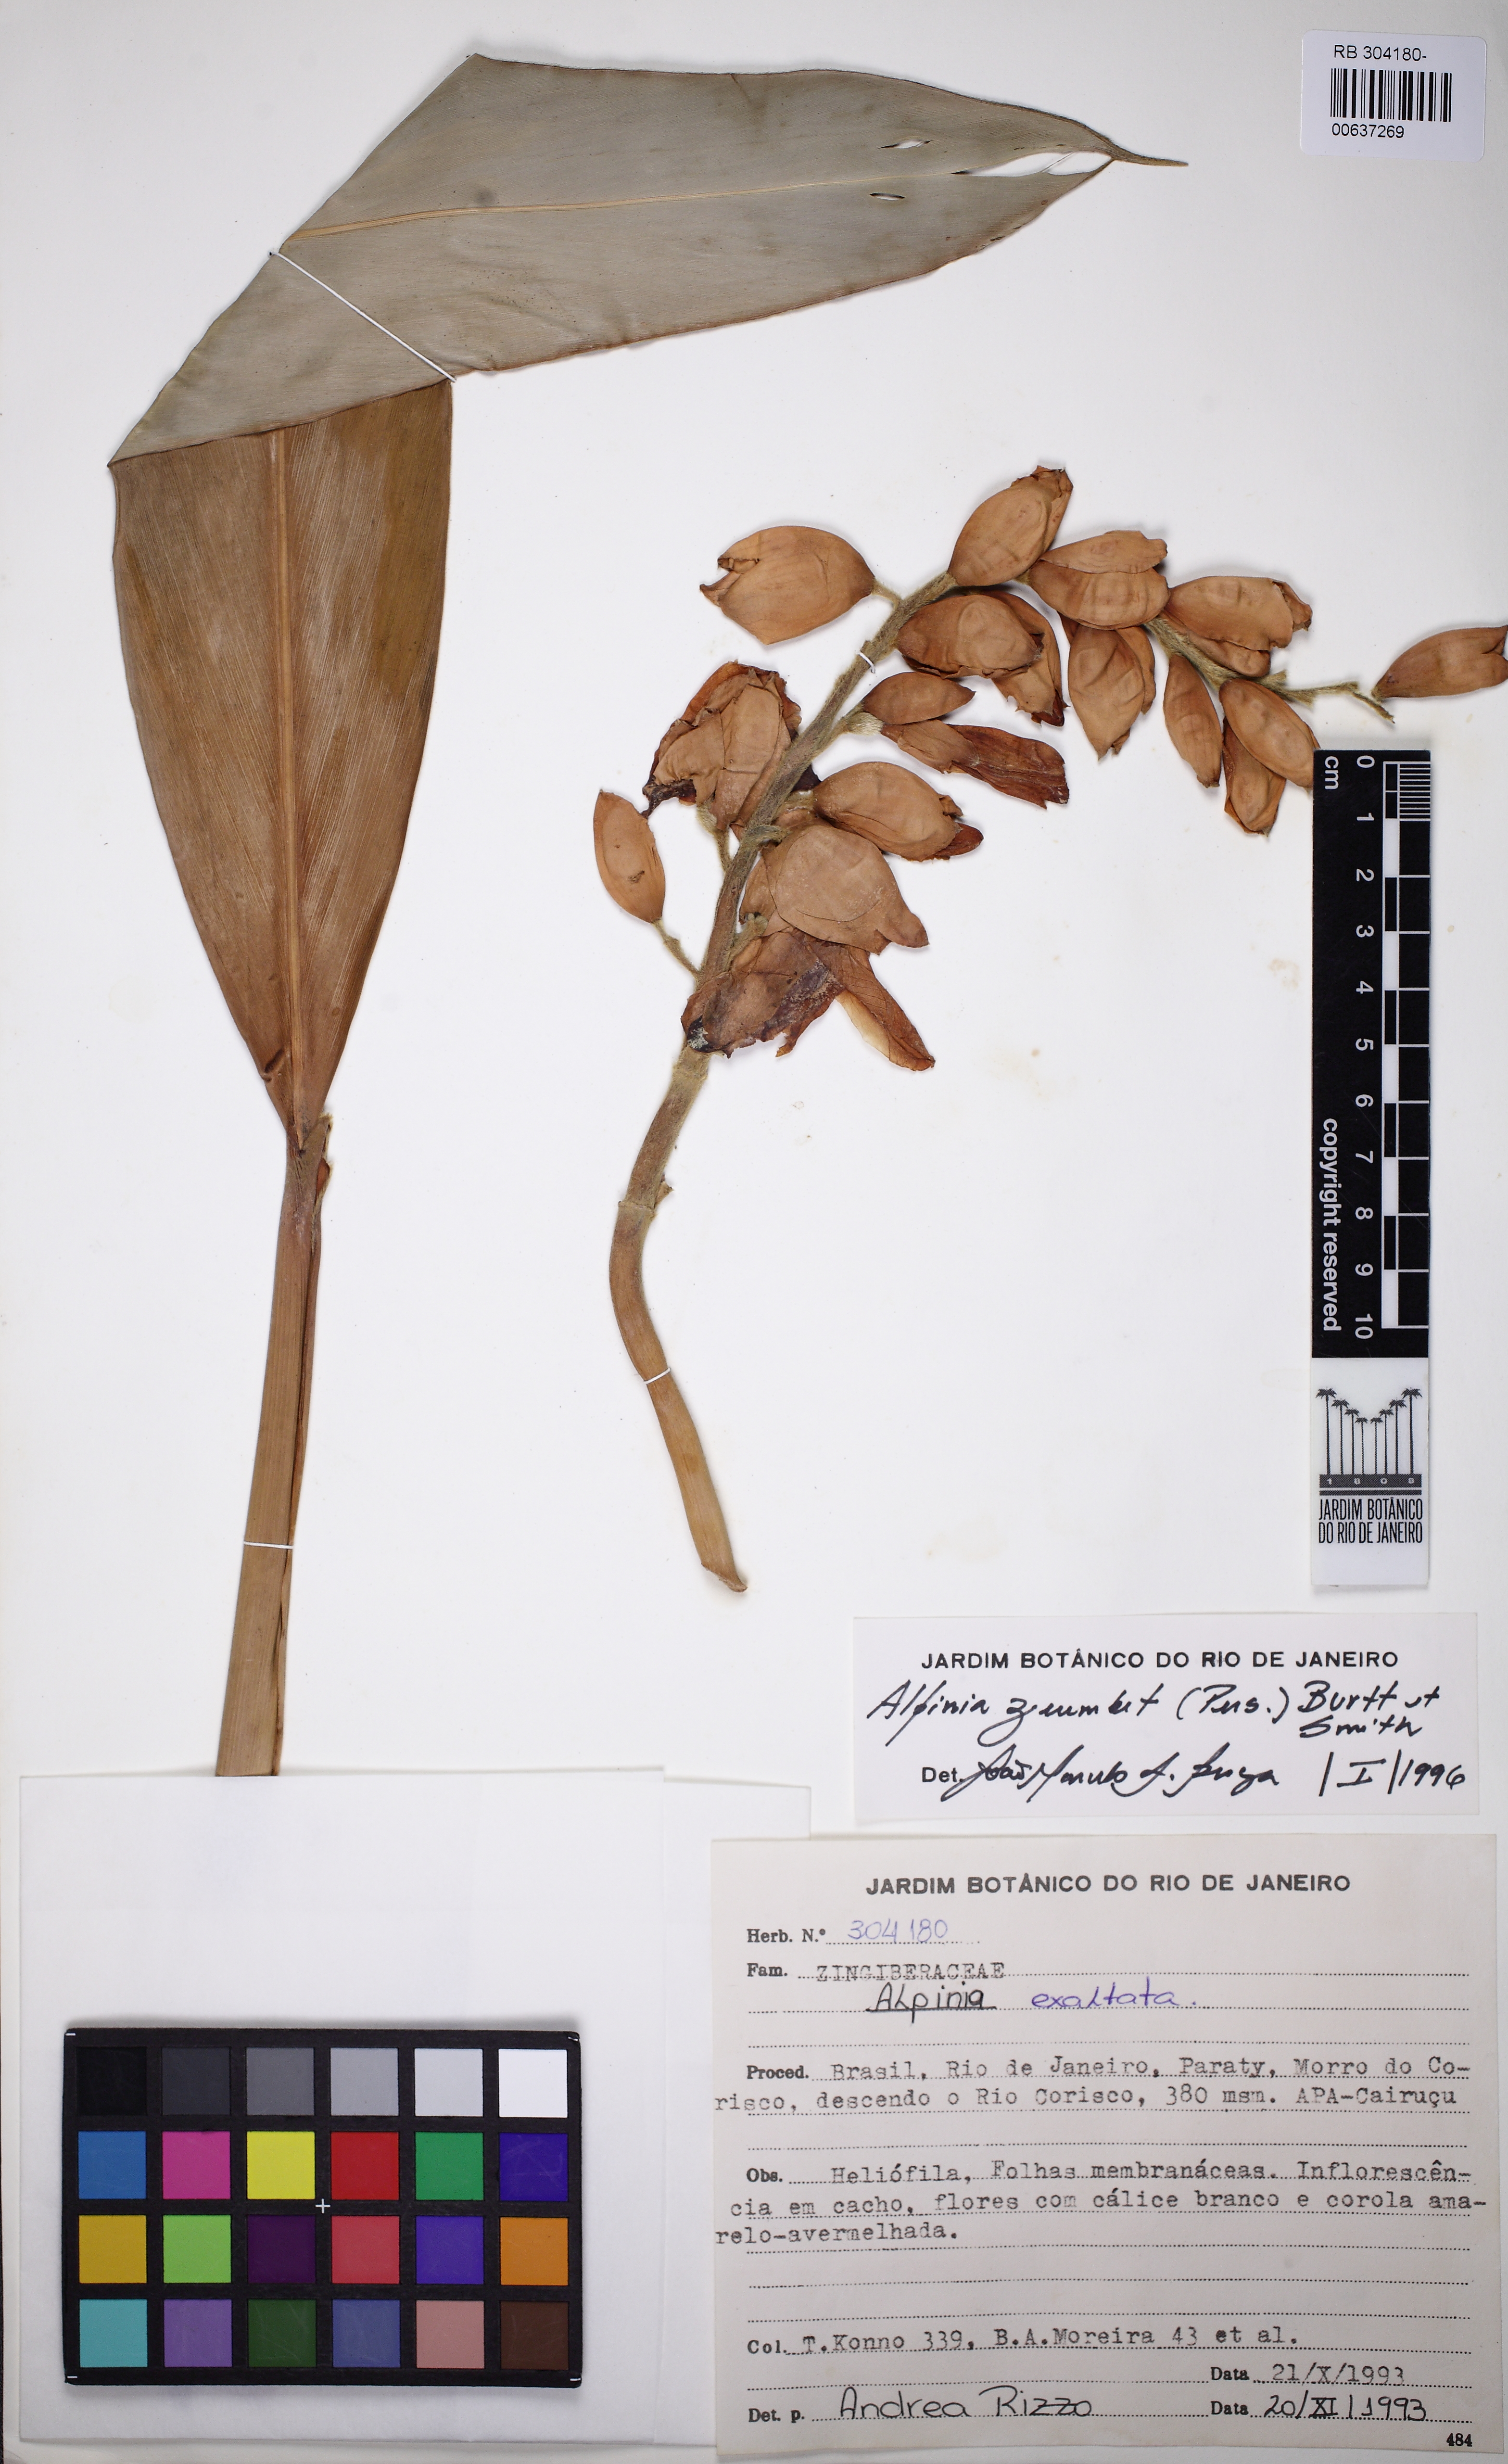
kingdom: Plantae
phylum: Tracheophyta
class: Liliopsida
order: Zingiberales
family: Zingiberaceae
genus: Alpinia
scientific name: Alpinia zerumbet
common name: Shellplant
